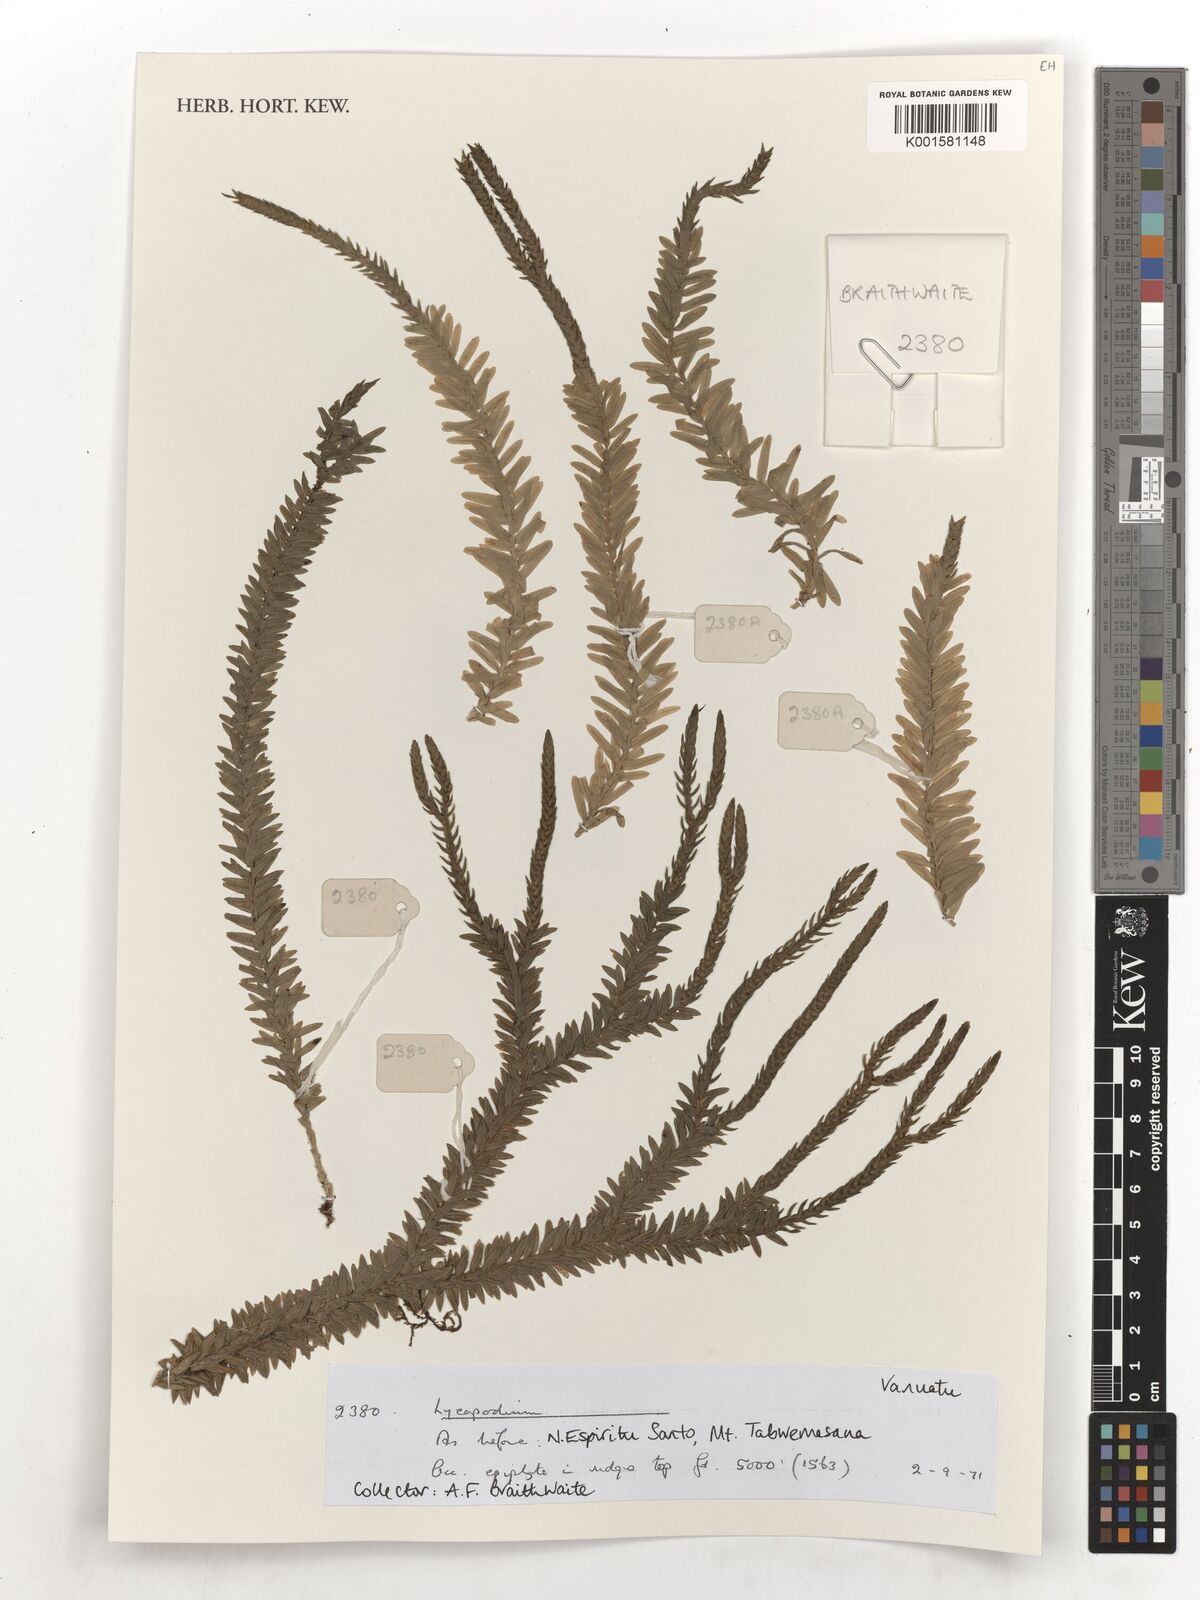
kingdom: Plantae
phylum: Tracheophyta
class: Lycopodiopsida
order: Lycopodiales
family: Lycopodiaceae
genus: Lycopodium
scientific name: Lycopodium
